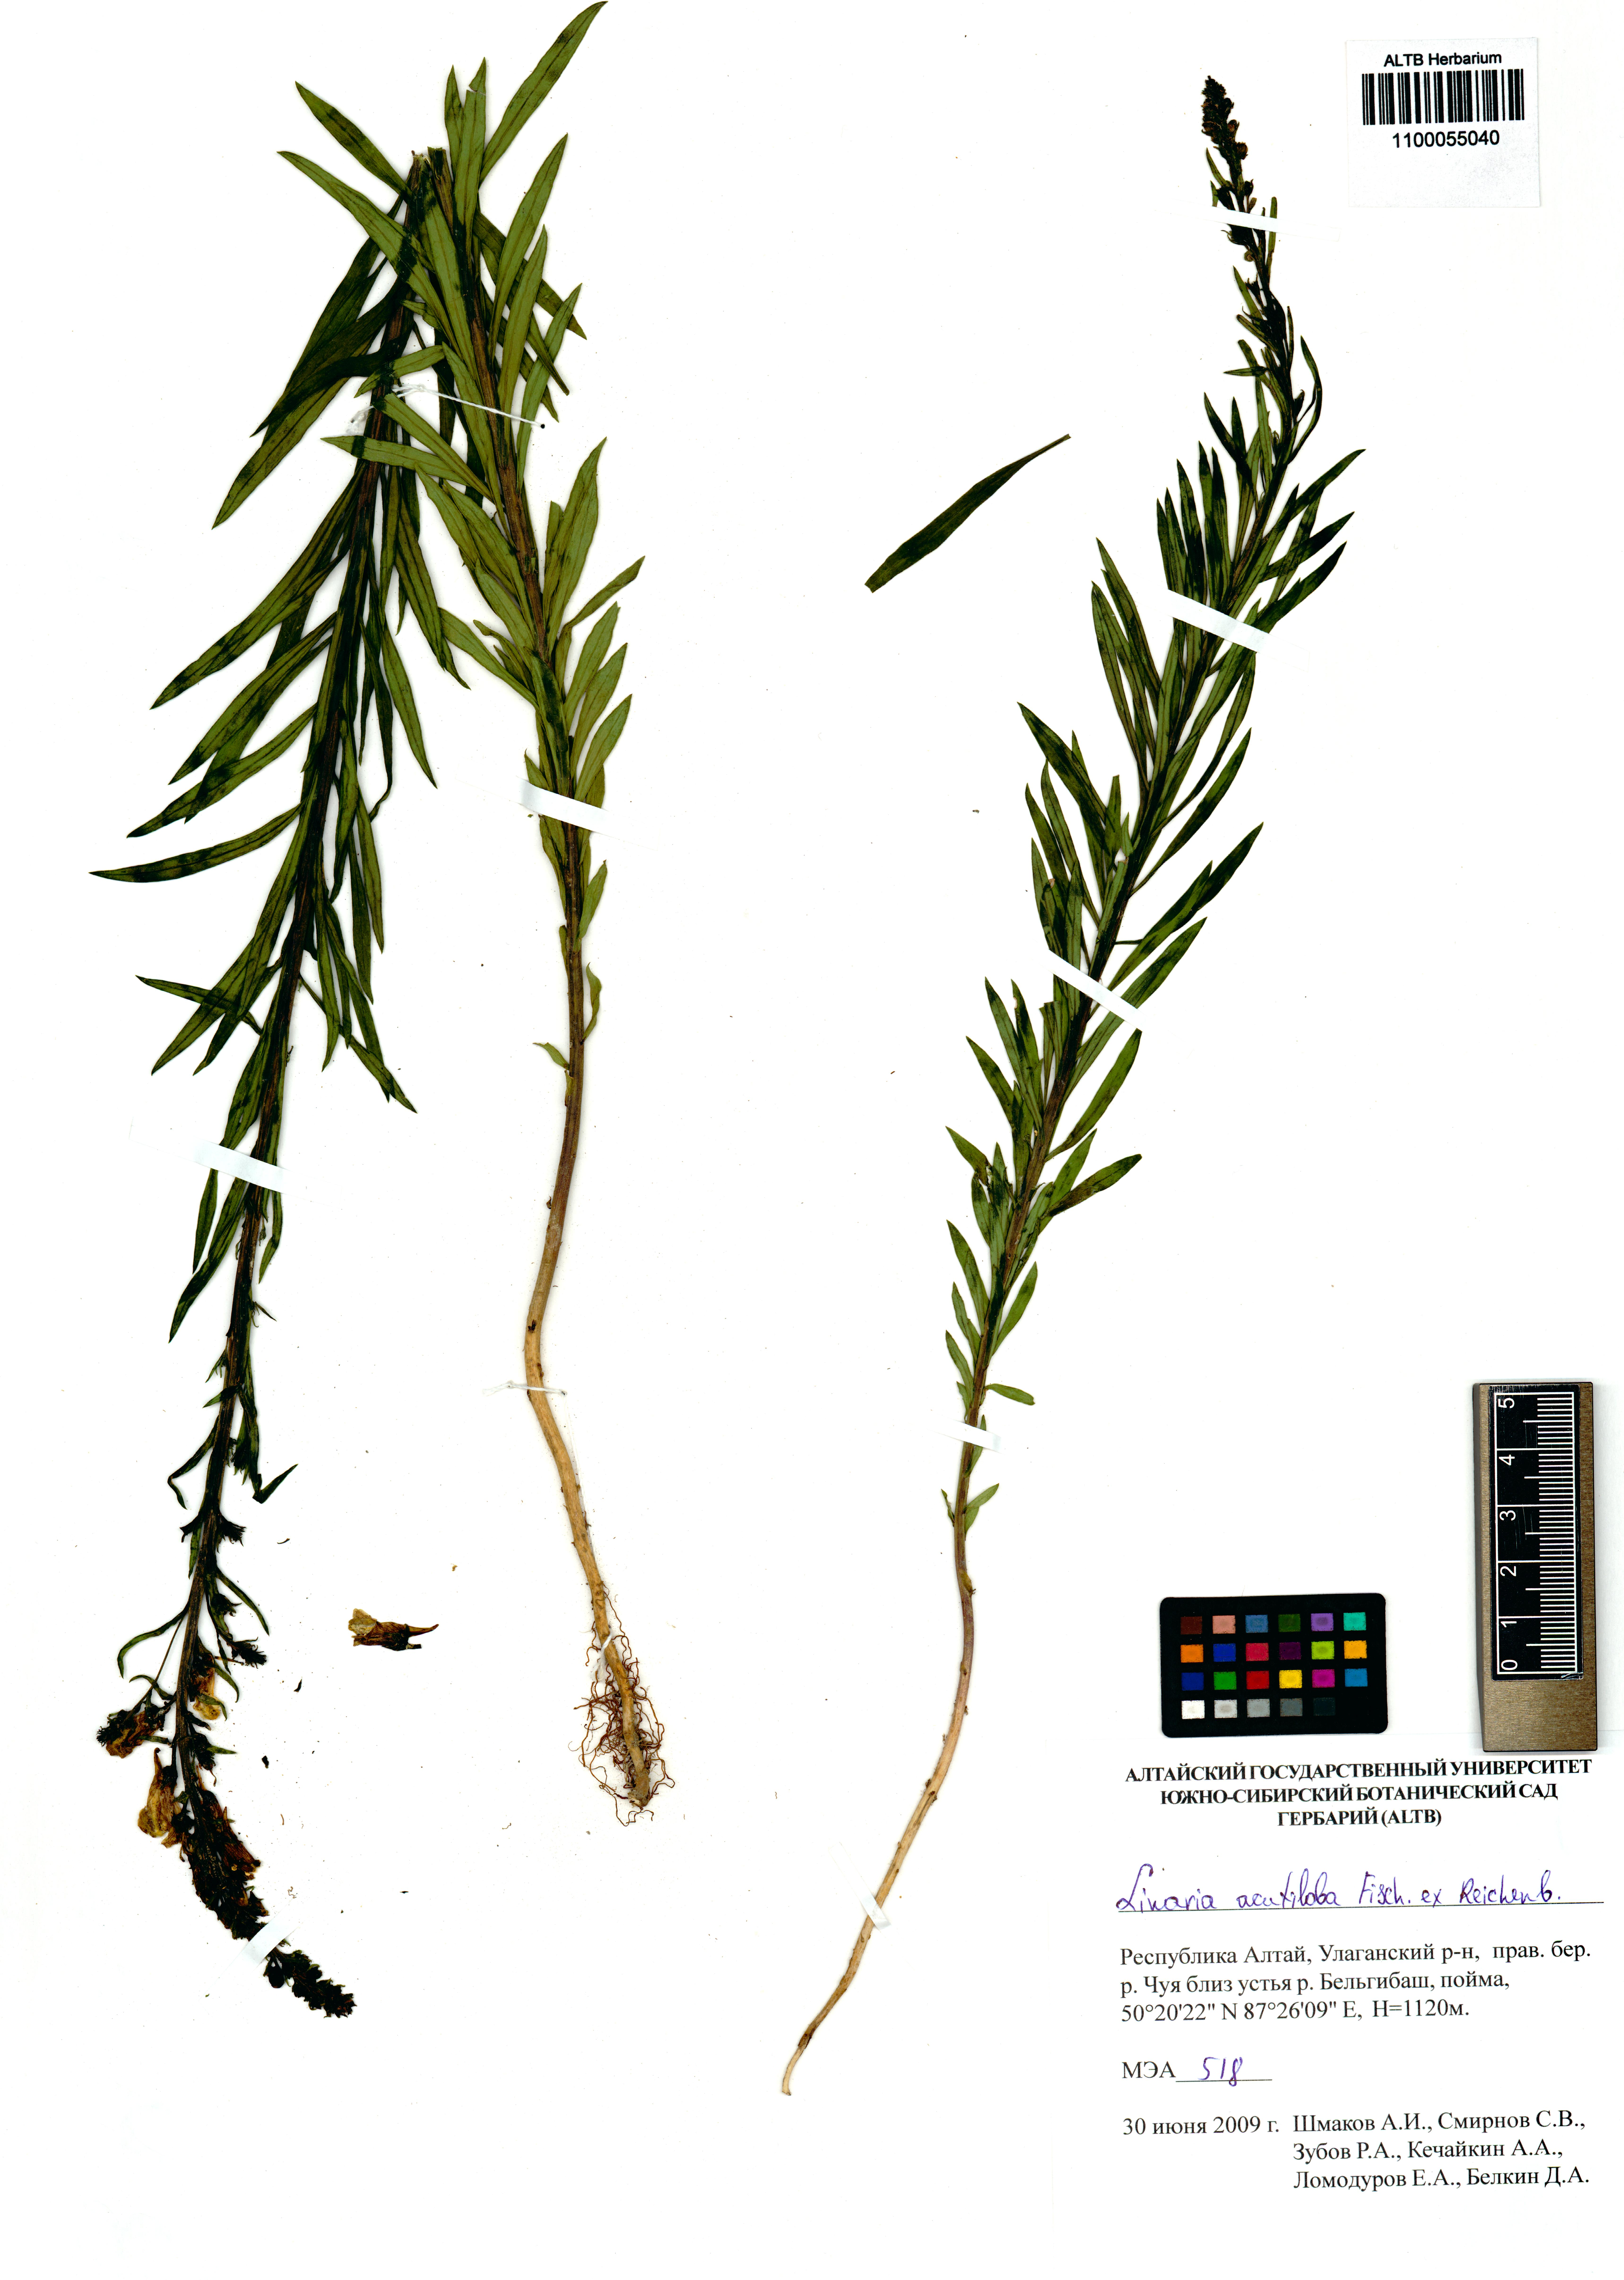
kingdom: Plantae
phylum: Tracheophyta
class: Magnoliopsida
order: Lamiales
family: Plantaginaceae
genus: Linaria
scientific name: Linaria acutiloba
